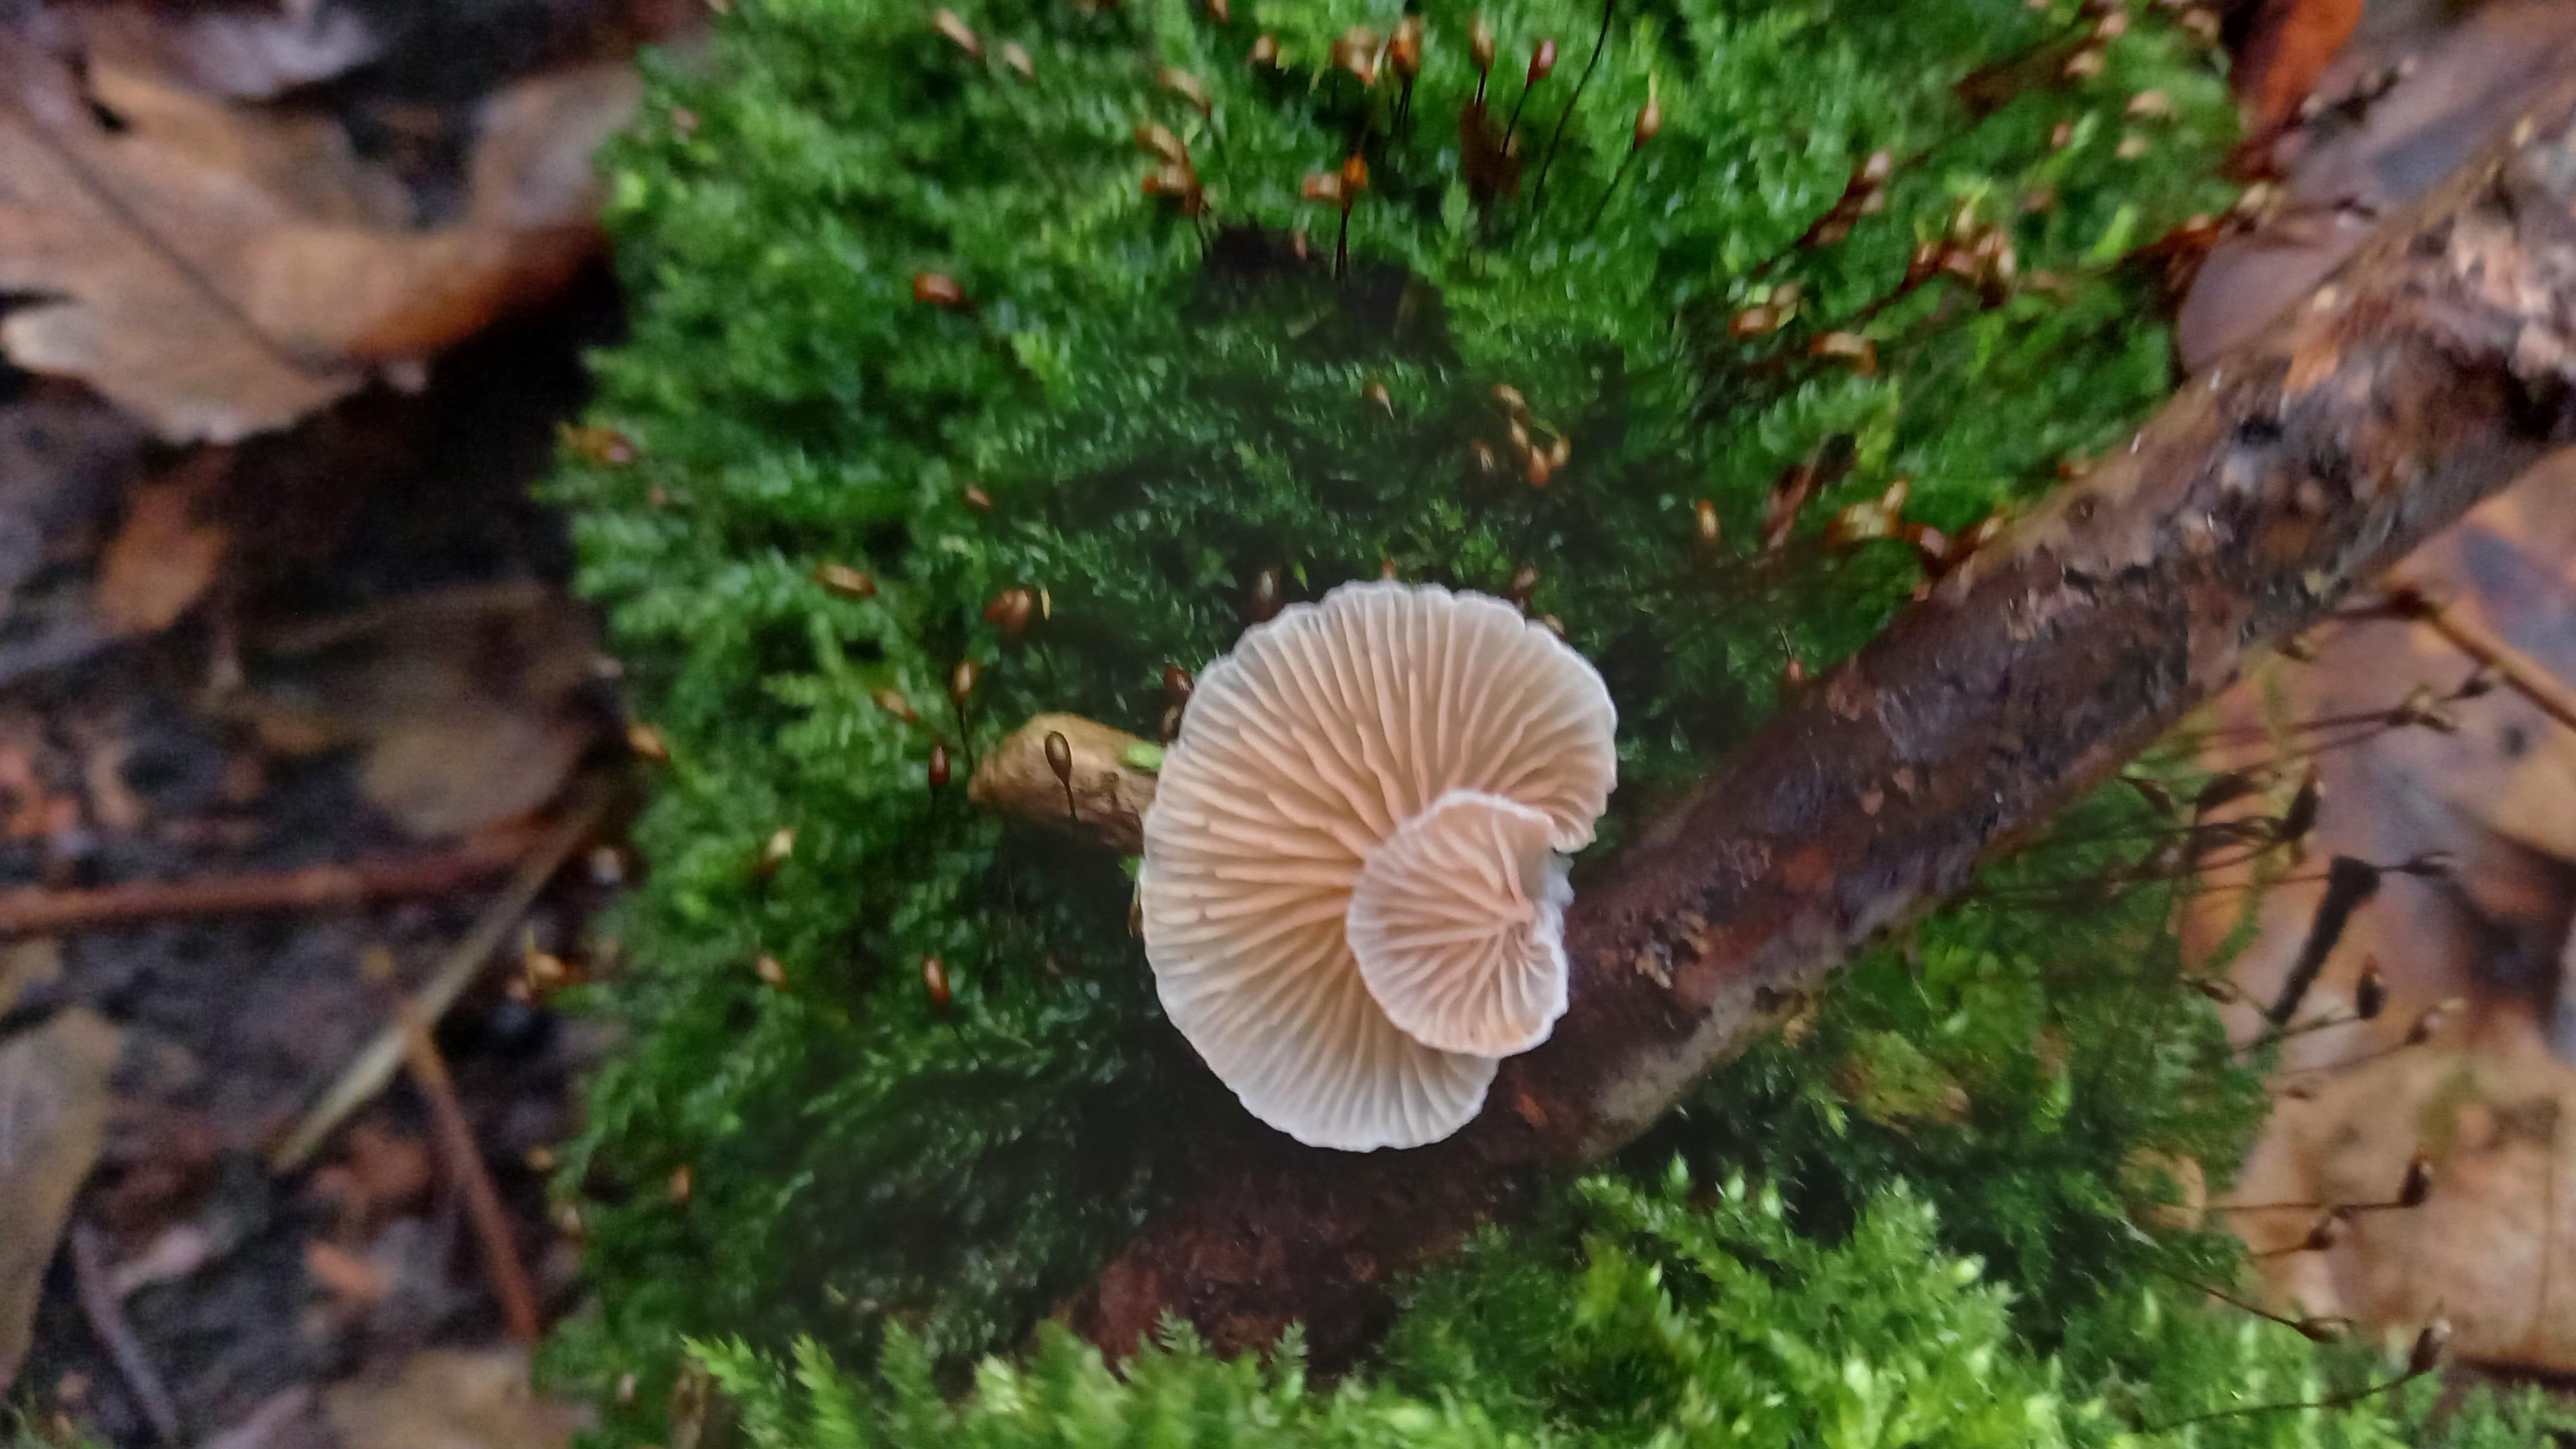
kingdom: Fungi
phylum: Basidiomycota
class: Agaricomycetes
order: Agaricales
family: Crepidotaceae
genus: Crepidotus
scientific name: Crepidotus cesatii
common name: almindelig muslingesvamp
